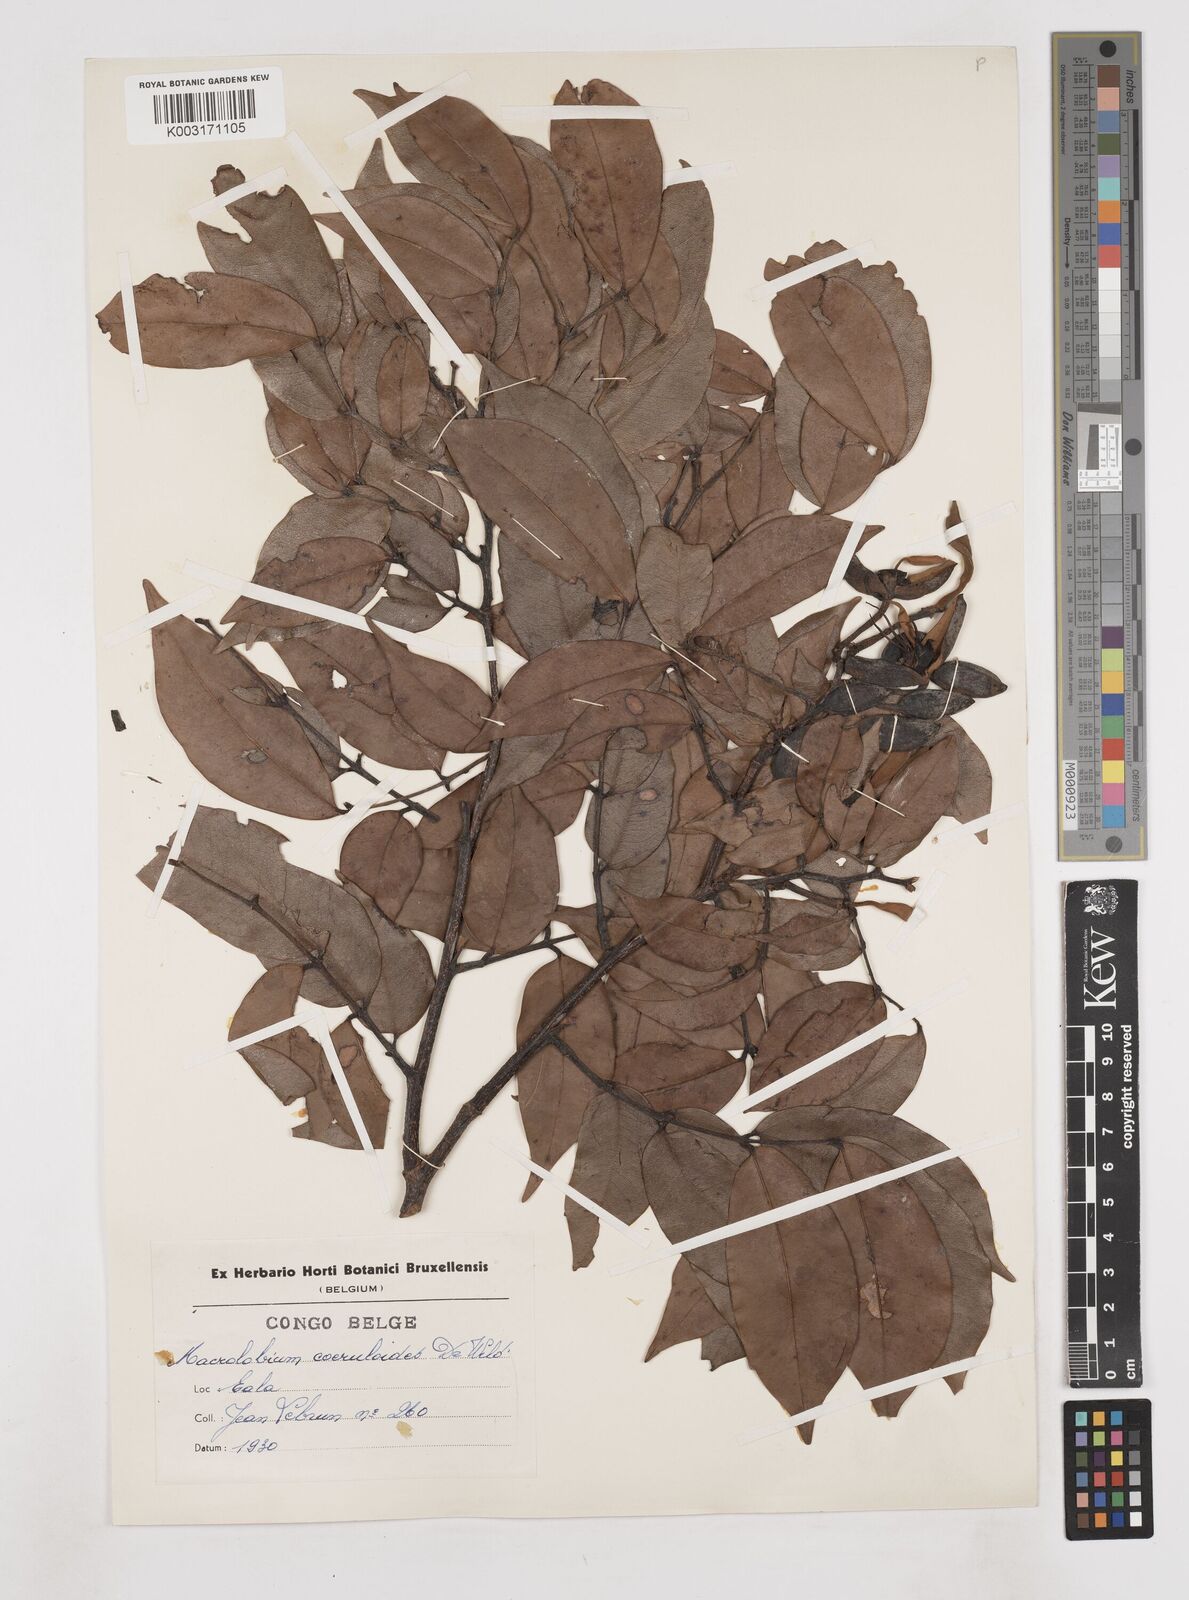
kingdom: Plantae
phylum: Tracheophyta
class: Magnoliopsida
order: Fabales
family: Fabaceae
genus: Paramacrolobium
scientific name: Paramacrolobium coeruleum
